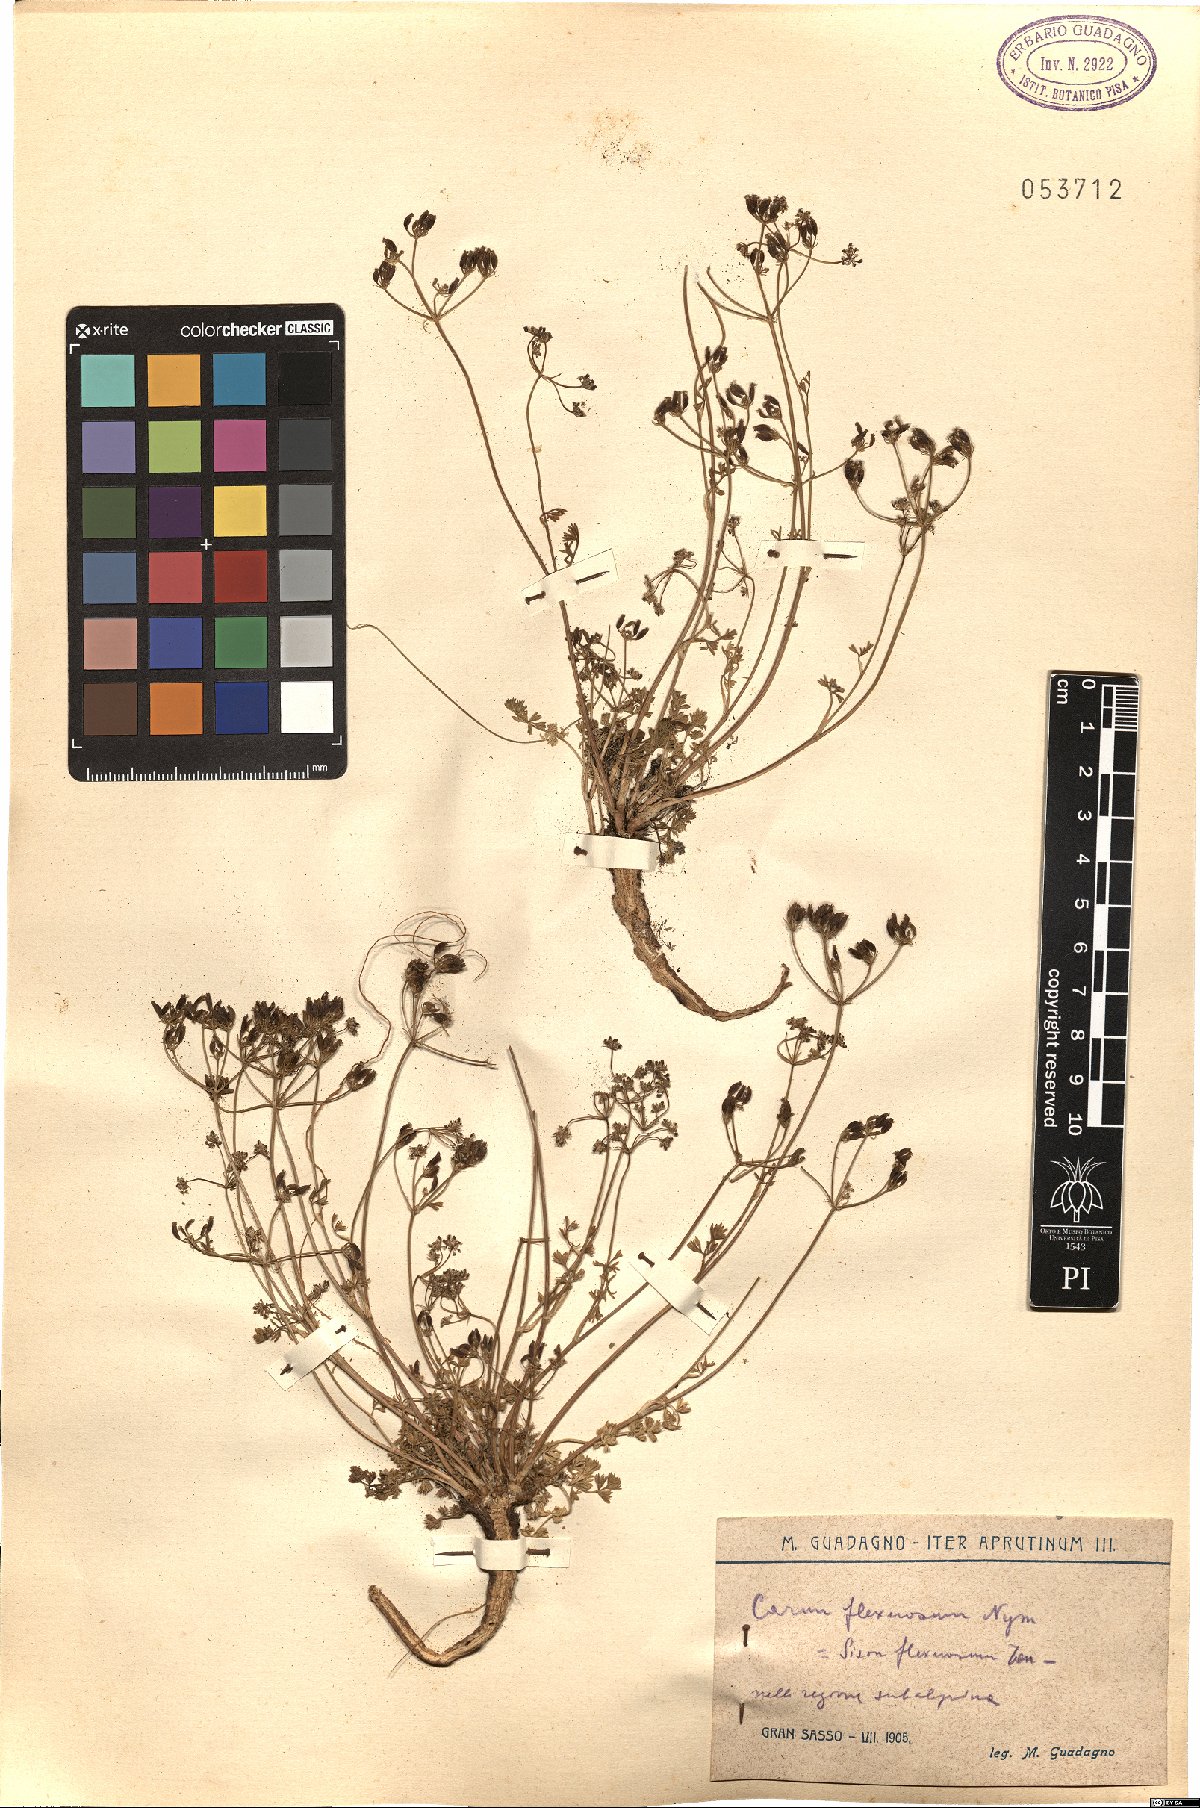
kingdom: Plantae
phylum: Tracheophyta
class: Magnoliopsida
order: Apiales
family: Apiaceae
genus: Selinum
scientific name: Selinum carvifolia
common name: Cambridge milk-parsley
